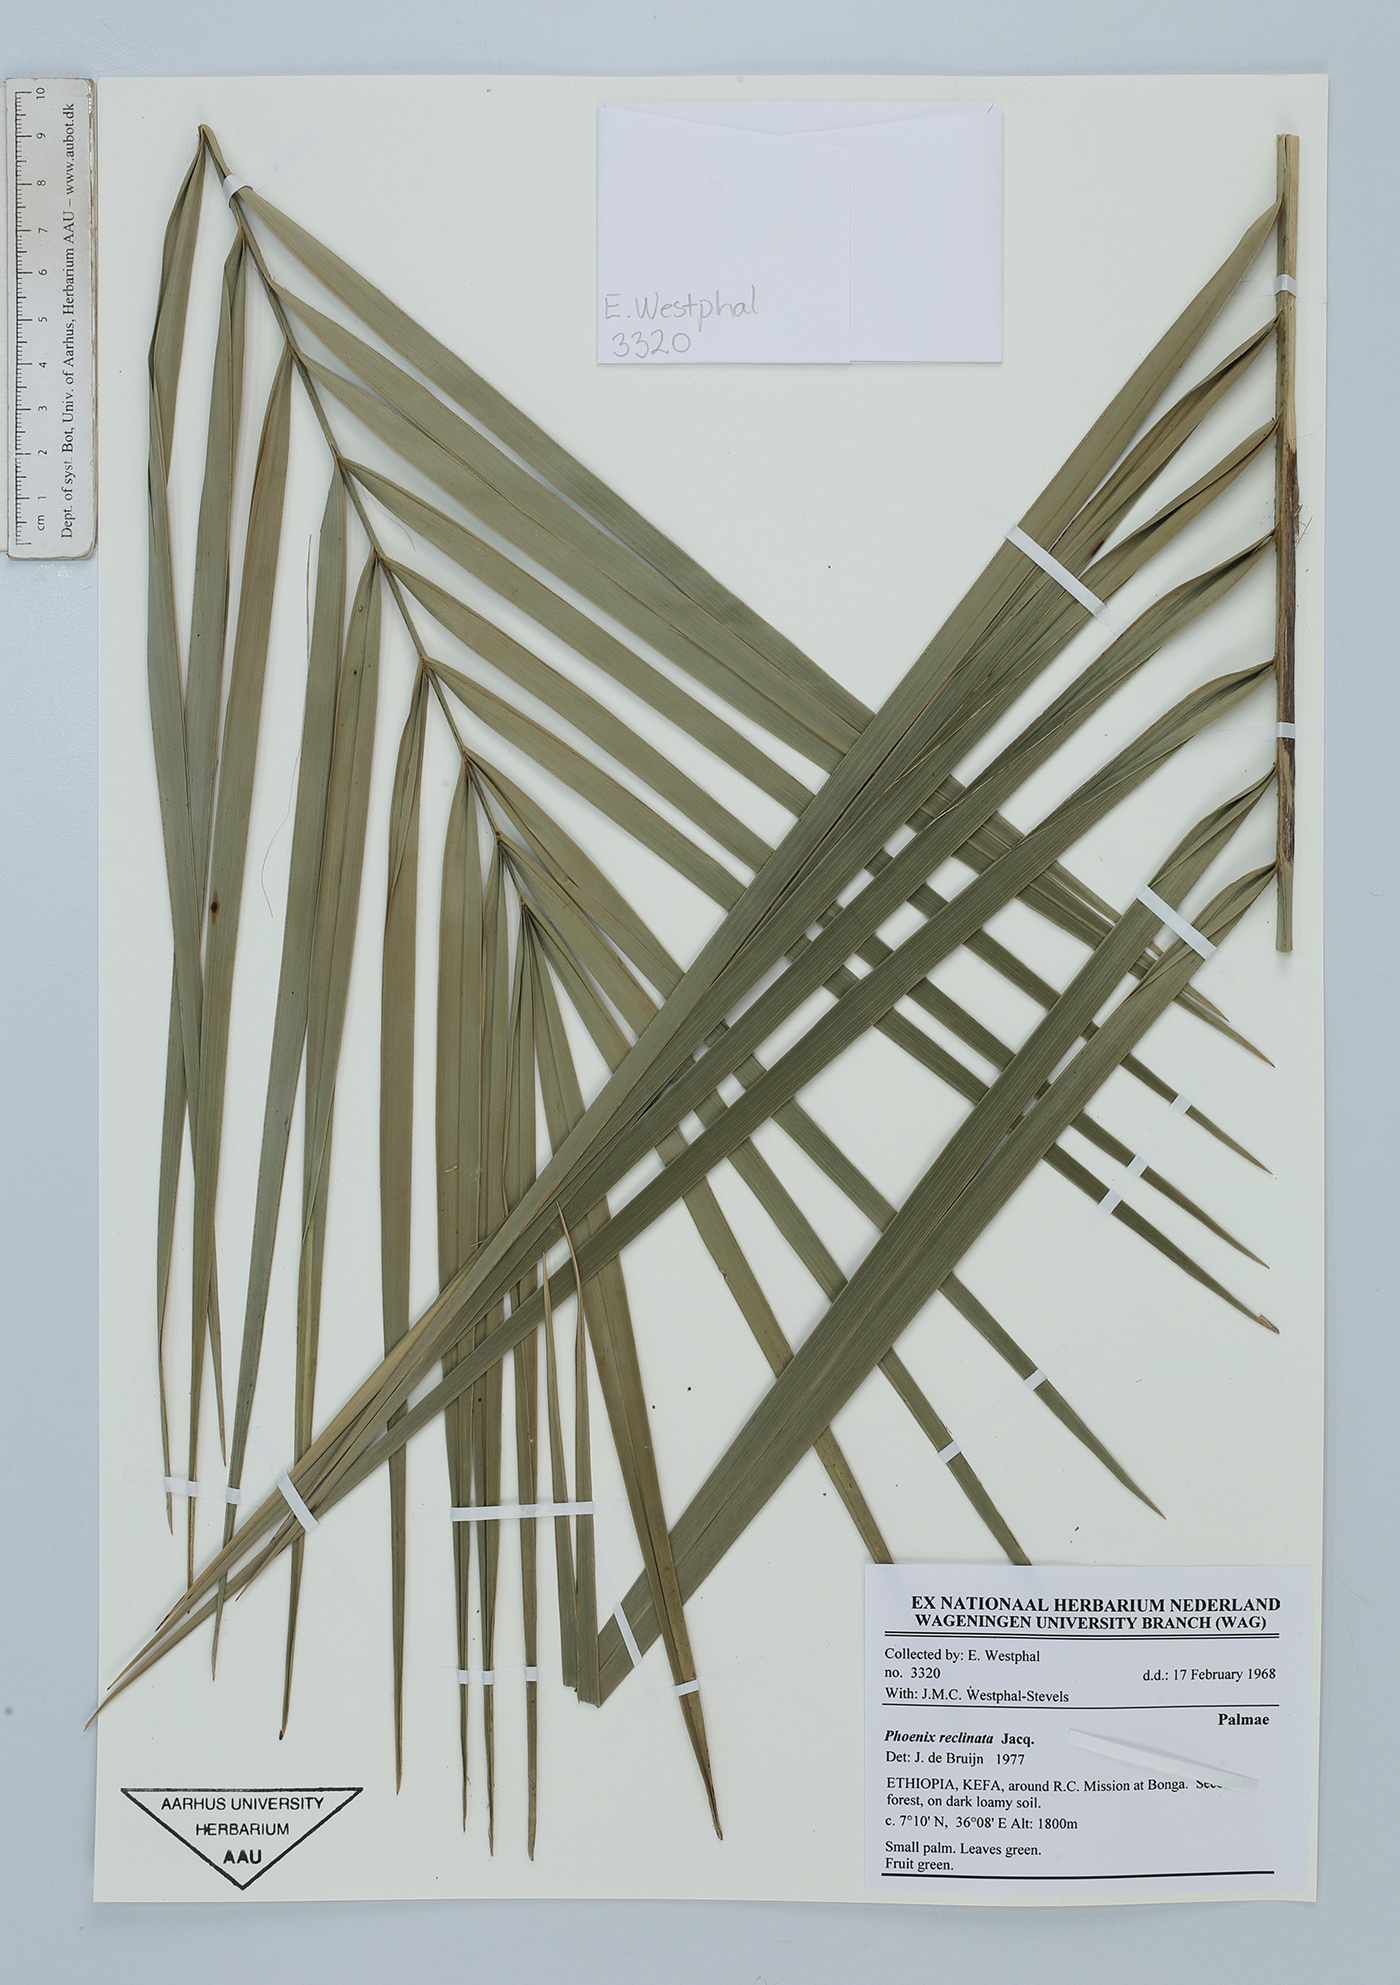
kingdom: Plantae
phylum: Tracheophyta
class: Liliopsida
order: Arecales
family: Arecaceae
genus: Phoenix
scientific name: Phoenix reclinata
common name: Senegal date palm
